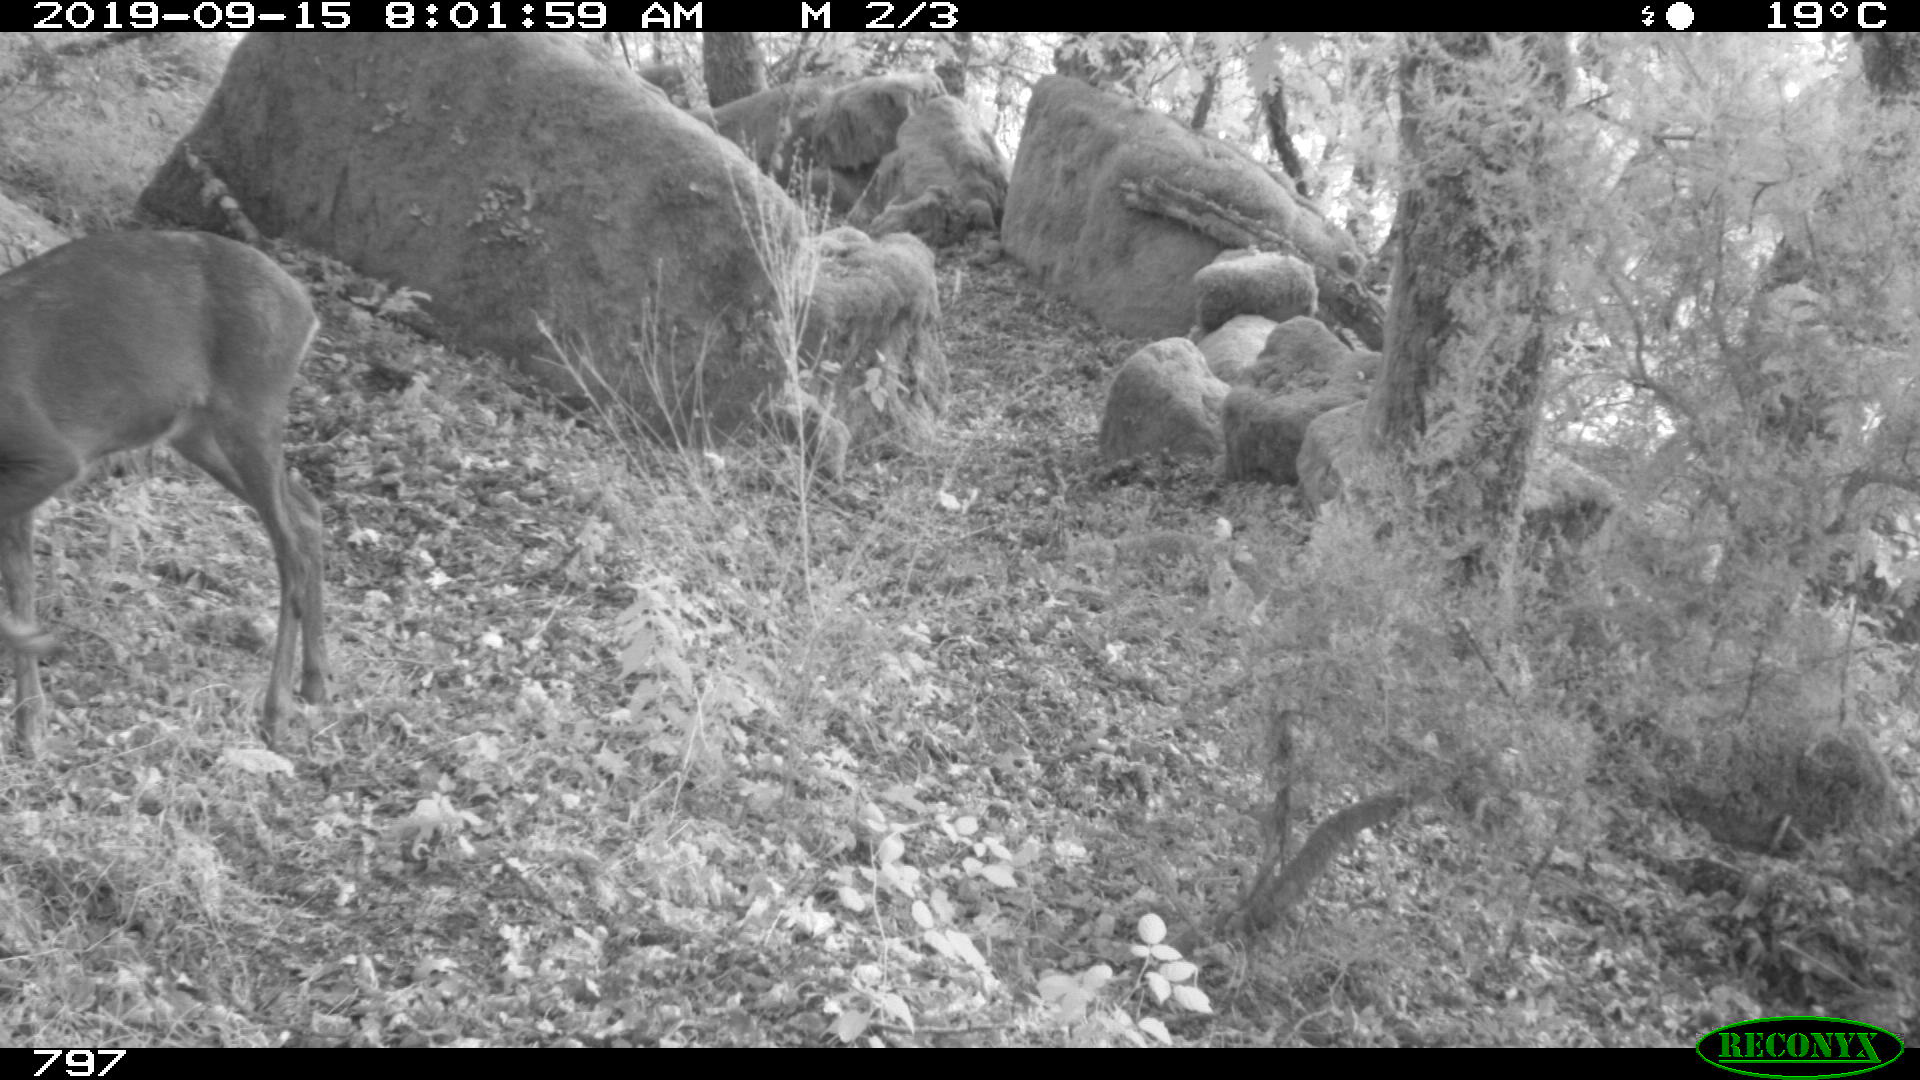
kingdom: Animalia
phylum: Chordata
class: Mammalia
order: Artiodactyla
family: Cervidae
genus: Capreolus
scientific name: Capreolus capreolus
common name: Western roe deer
